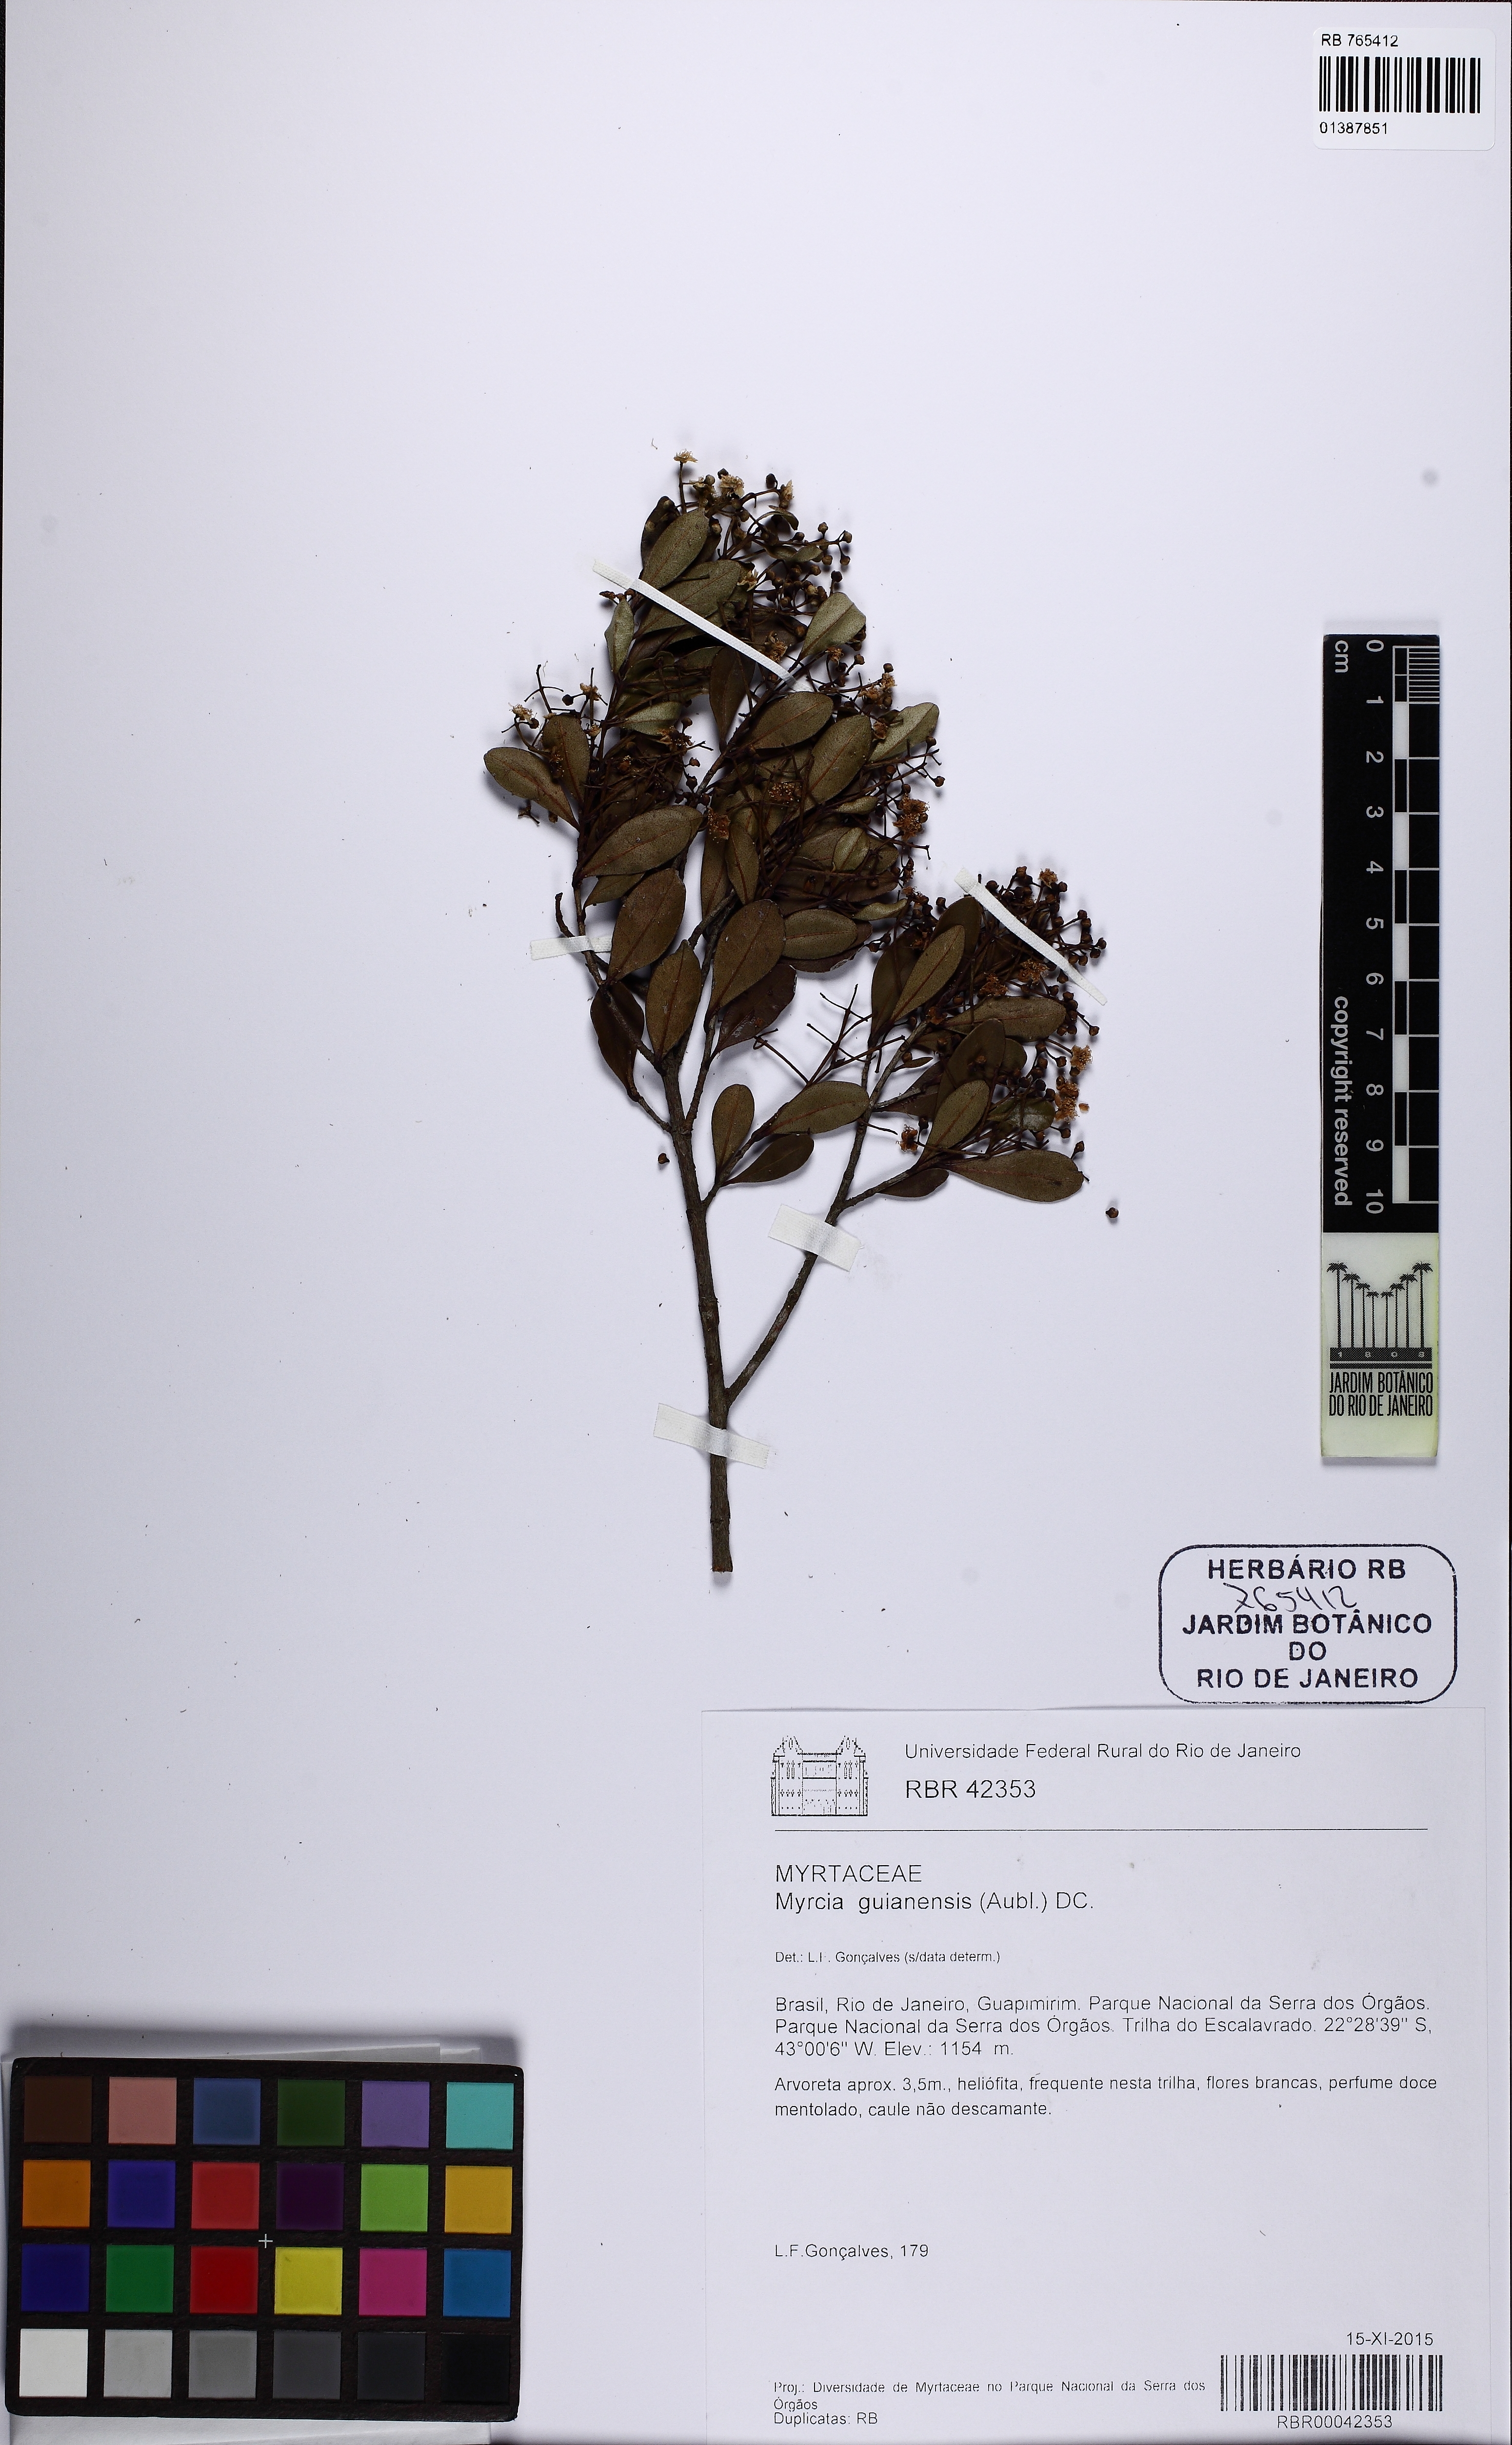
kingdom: Plantae
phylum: Tracheophyta
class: Magnoliopsida
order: Myrtales
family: Myrtaceae
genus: Myrcia
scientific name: Myrcia guianensis
